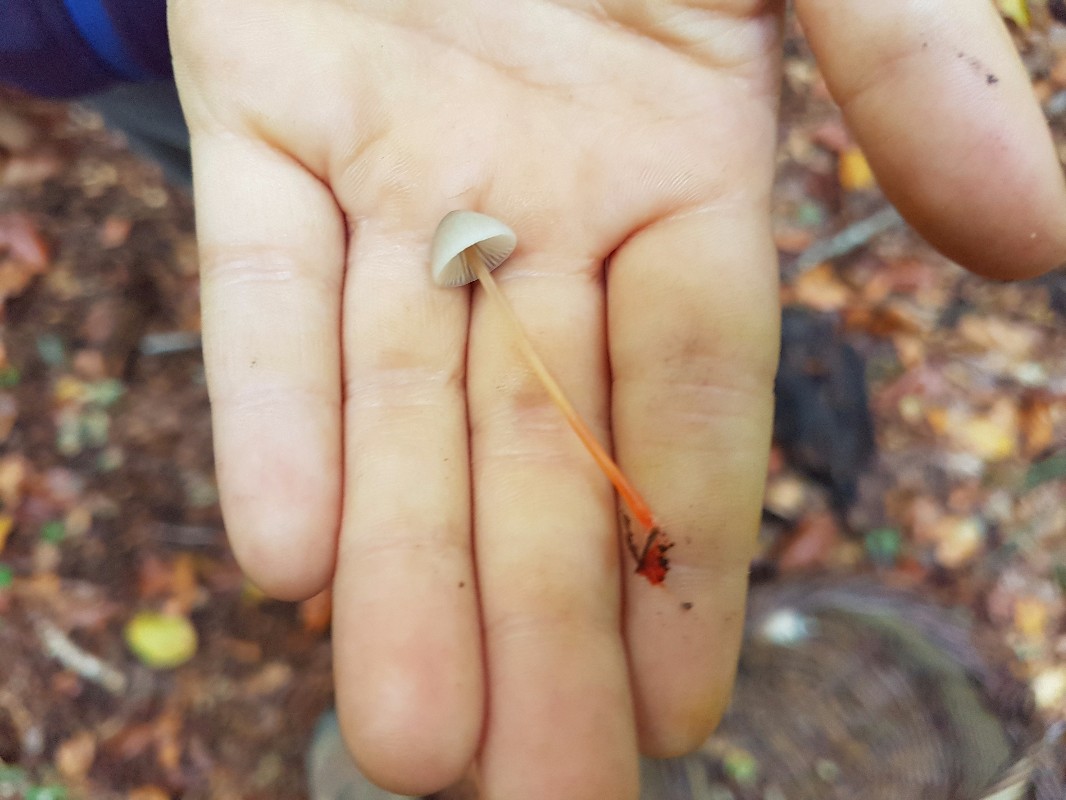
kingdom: Fungi
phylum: Basidiomycota
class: Agaricomycetes
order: Agaricales
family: Mycenaceae
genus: Mycena
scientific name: Mycena crocata
